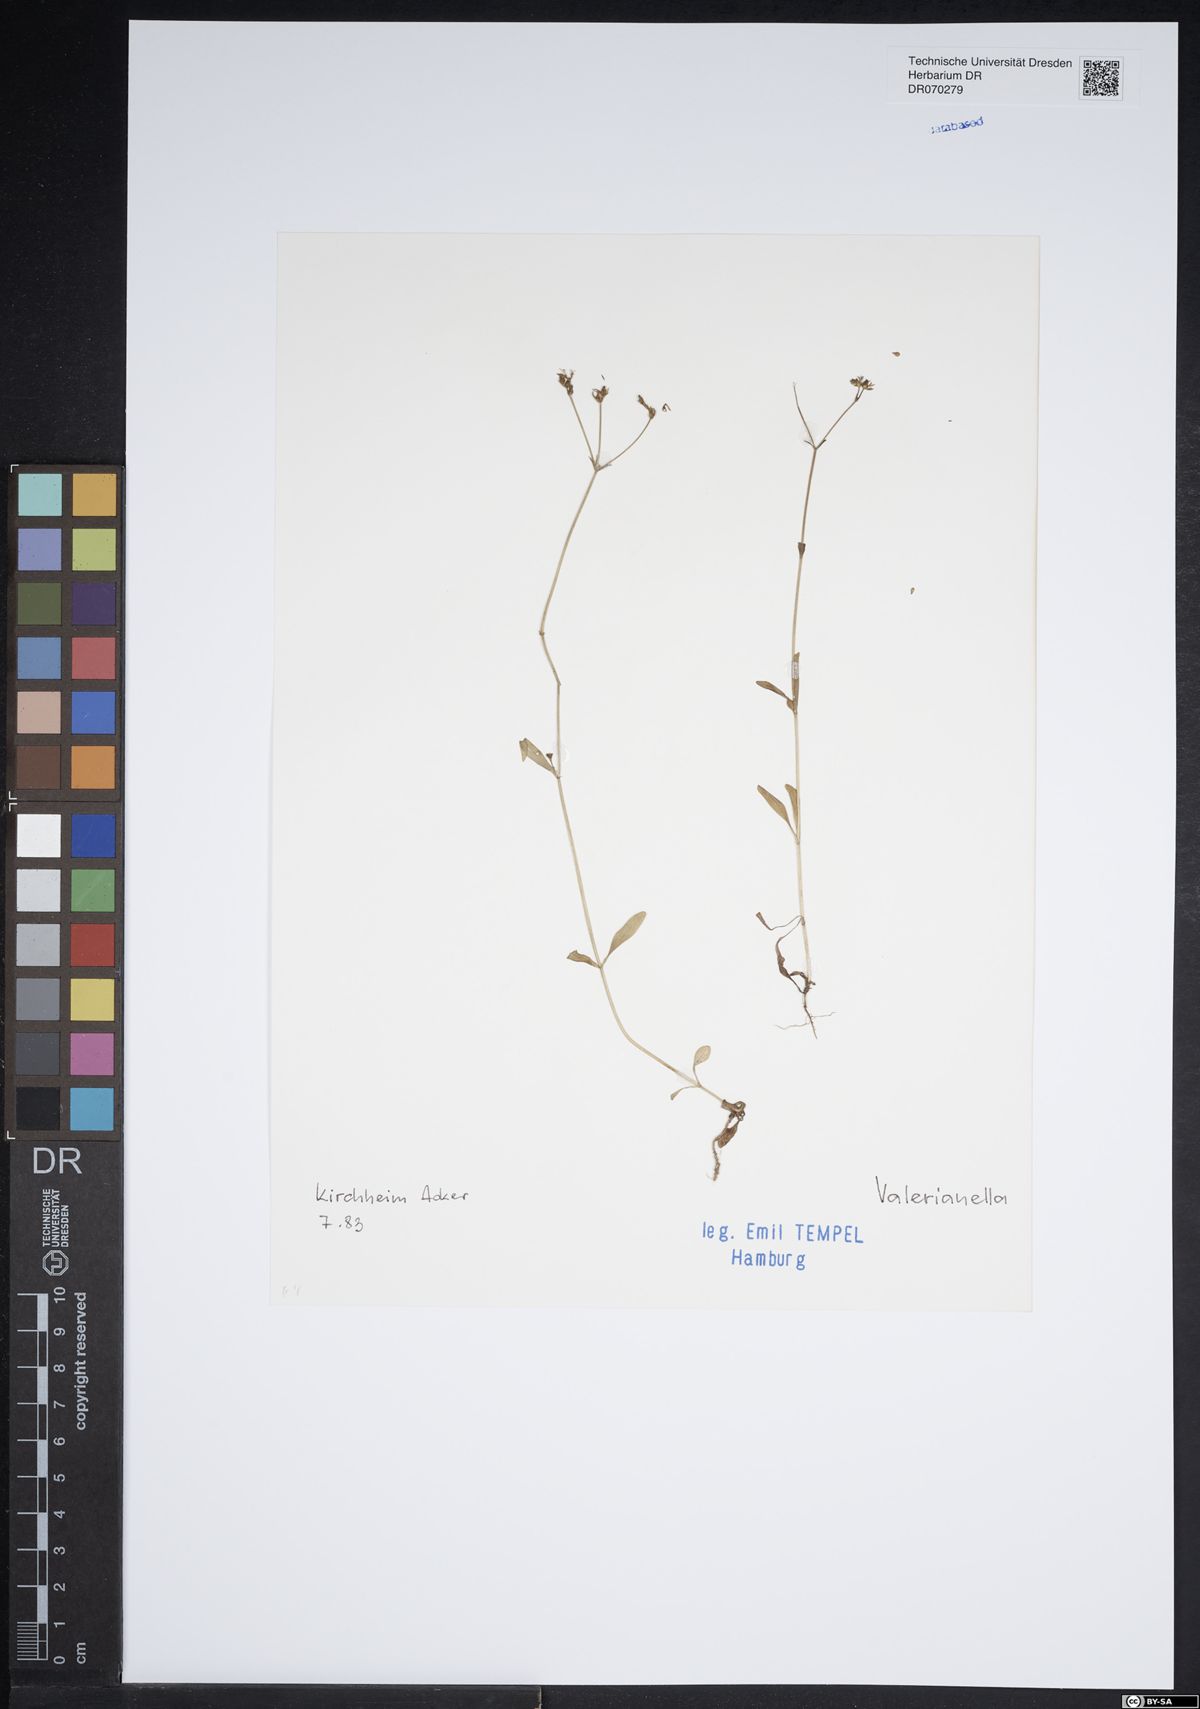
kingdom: Plantae
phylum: Tracheophyta
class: Magnoliopsida
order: Dipsacales
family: Caprifoliaceae
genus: Valerianella
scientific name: Valerianella
